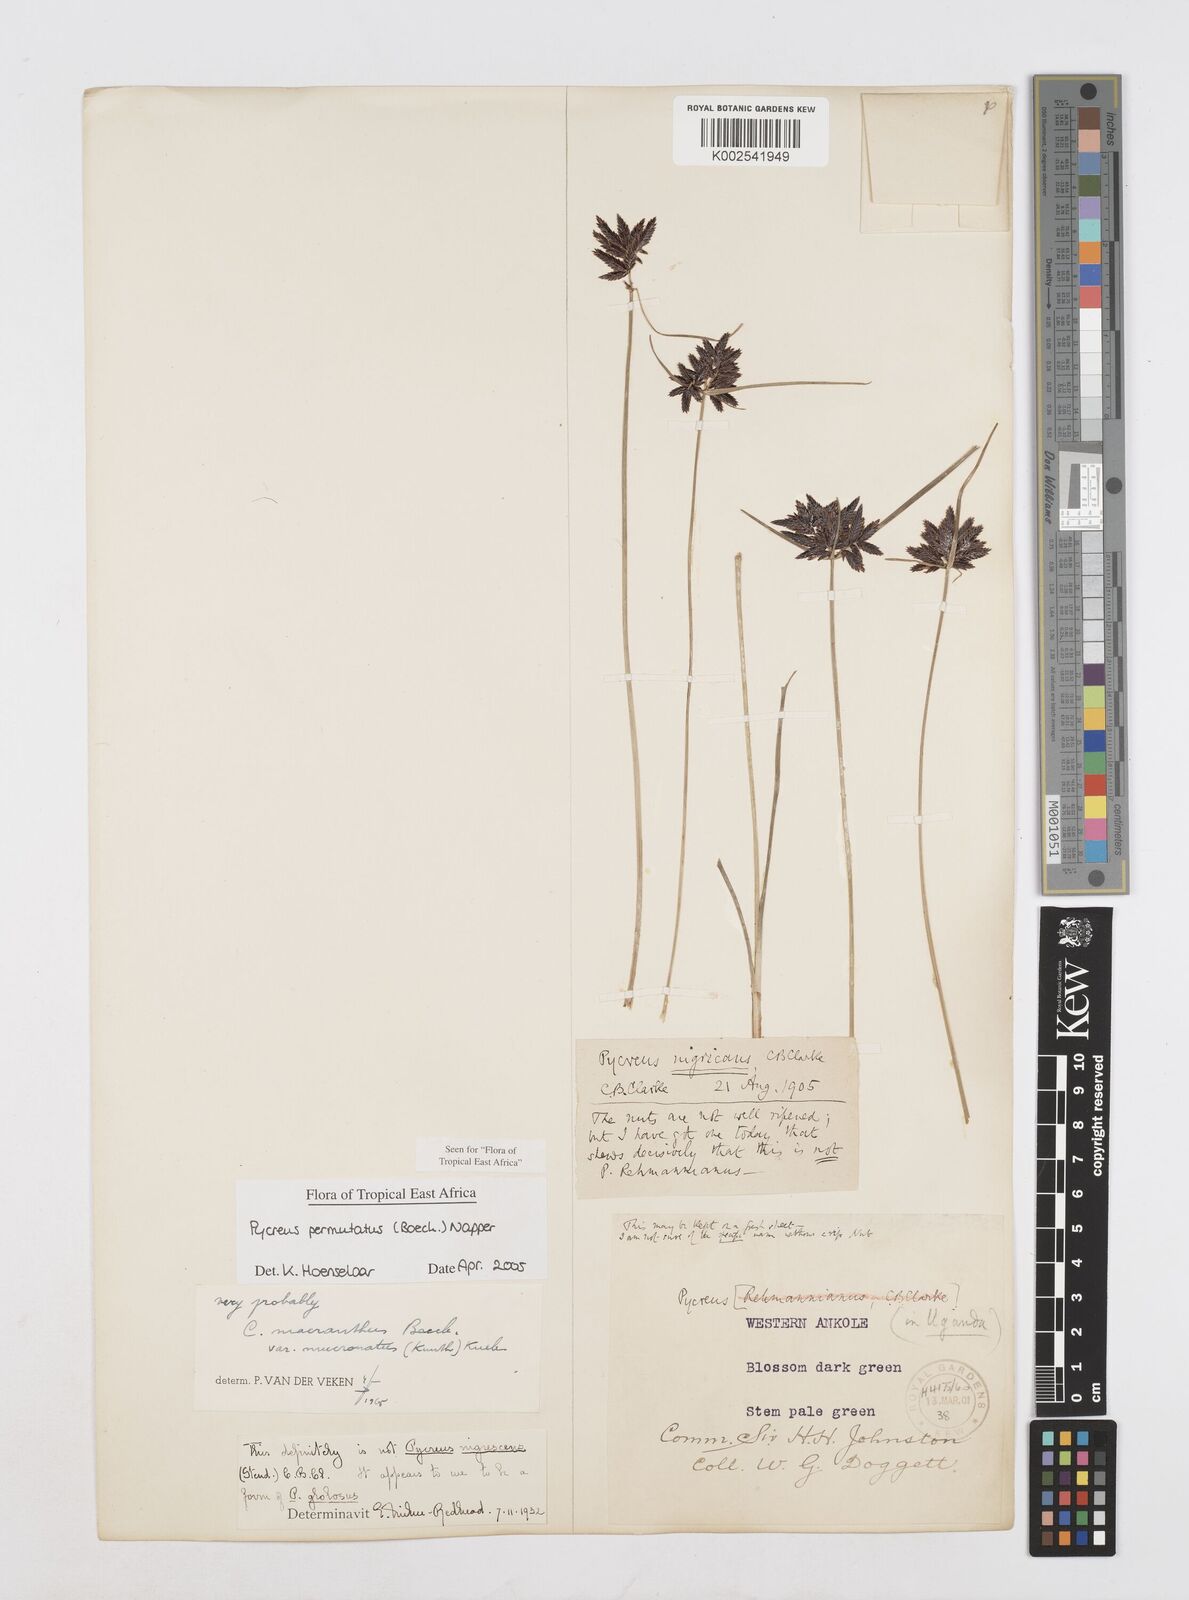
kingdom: Plantae
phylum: Tracheophyta
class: Liliopsida
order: Poales
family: Cyperaceae
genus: Cyperus
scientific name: Cyperus nigricans
